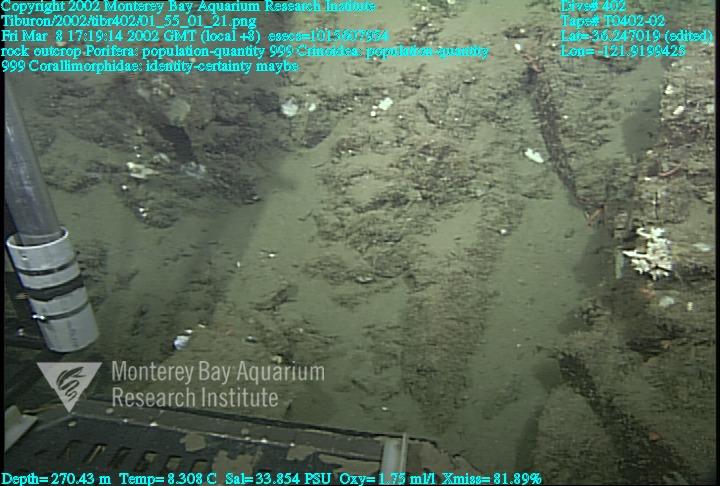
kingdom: Animalia
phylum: Porifera
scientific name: Porifera
